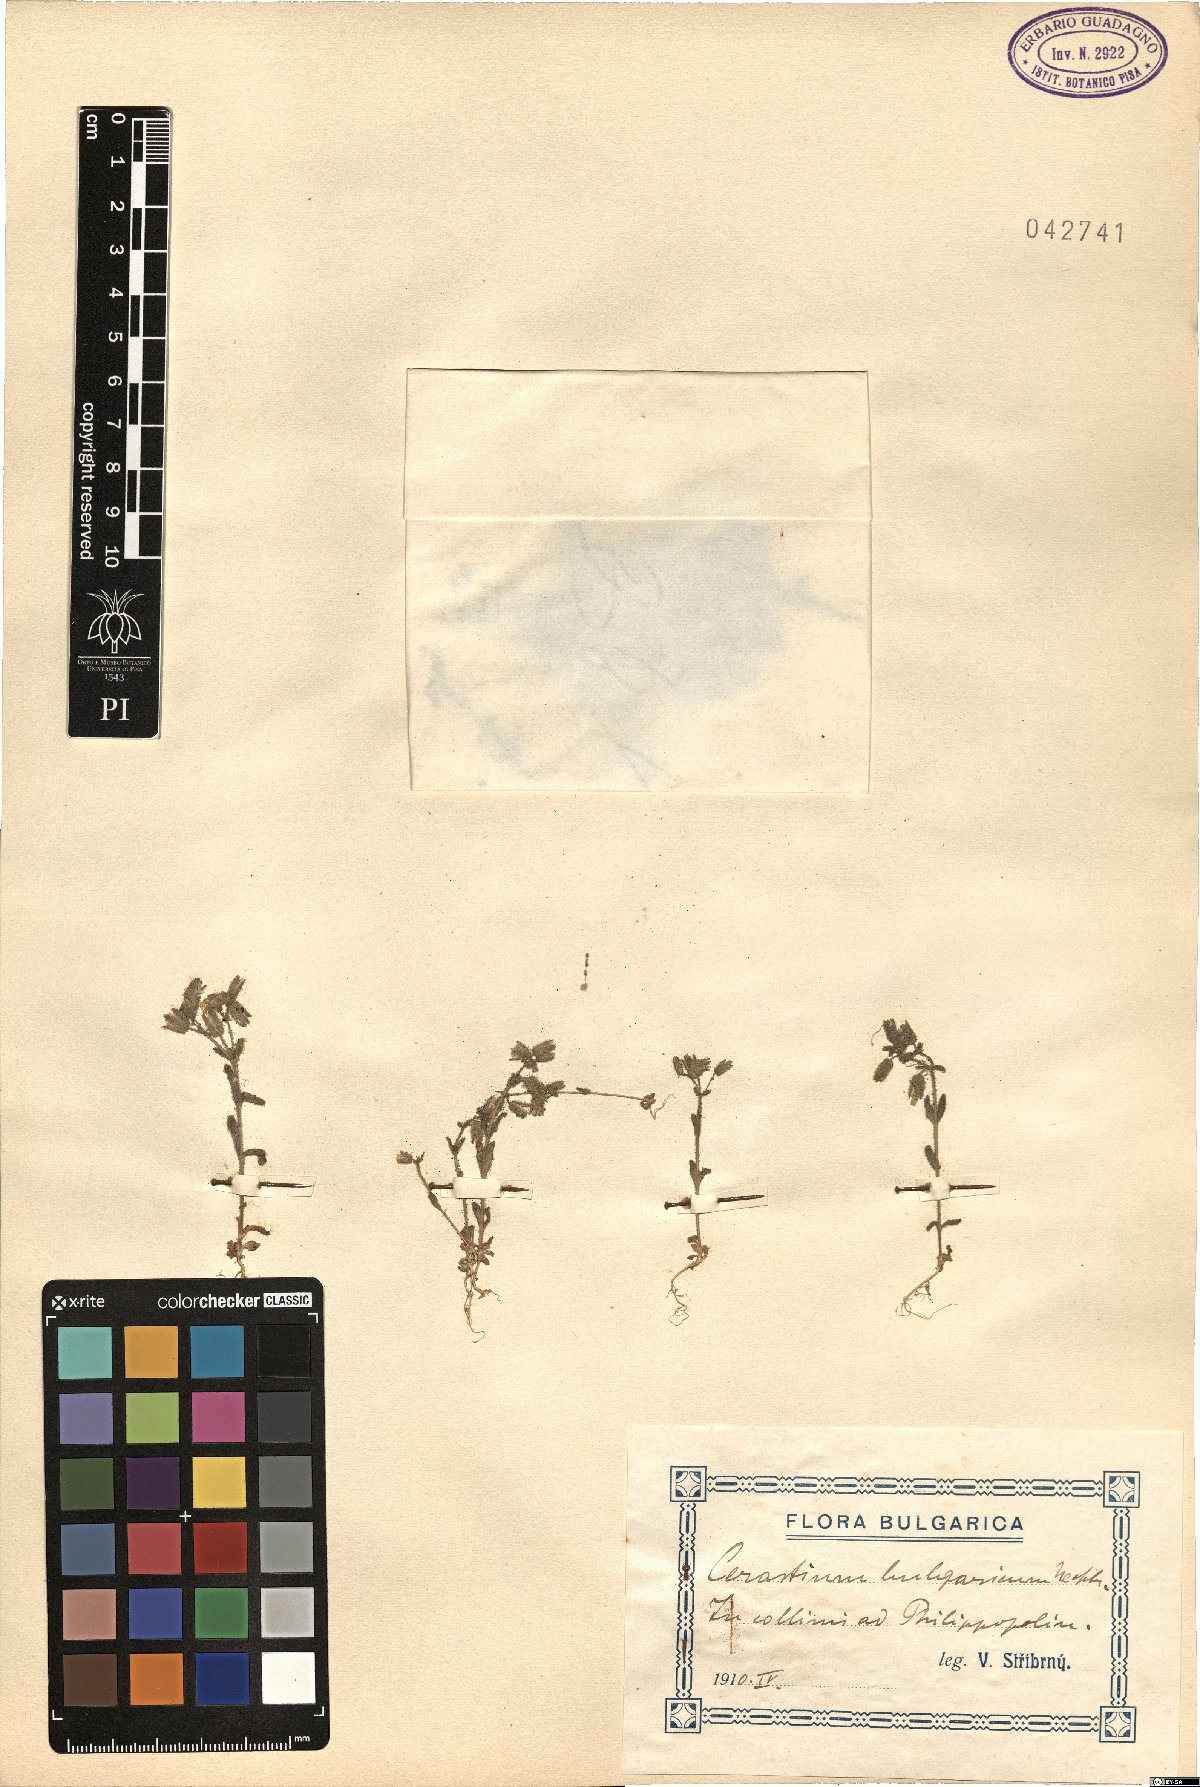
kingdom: Plantae
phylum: Tracheophyta
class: Magnoliopsida
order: Caryophyllales
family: Caryophyllaceae
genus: Cerastium
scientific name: Cerastium ramosissimum
